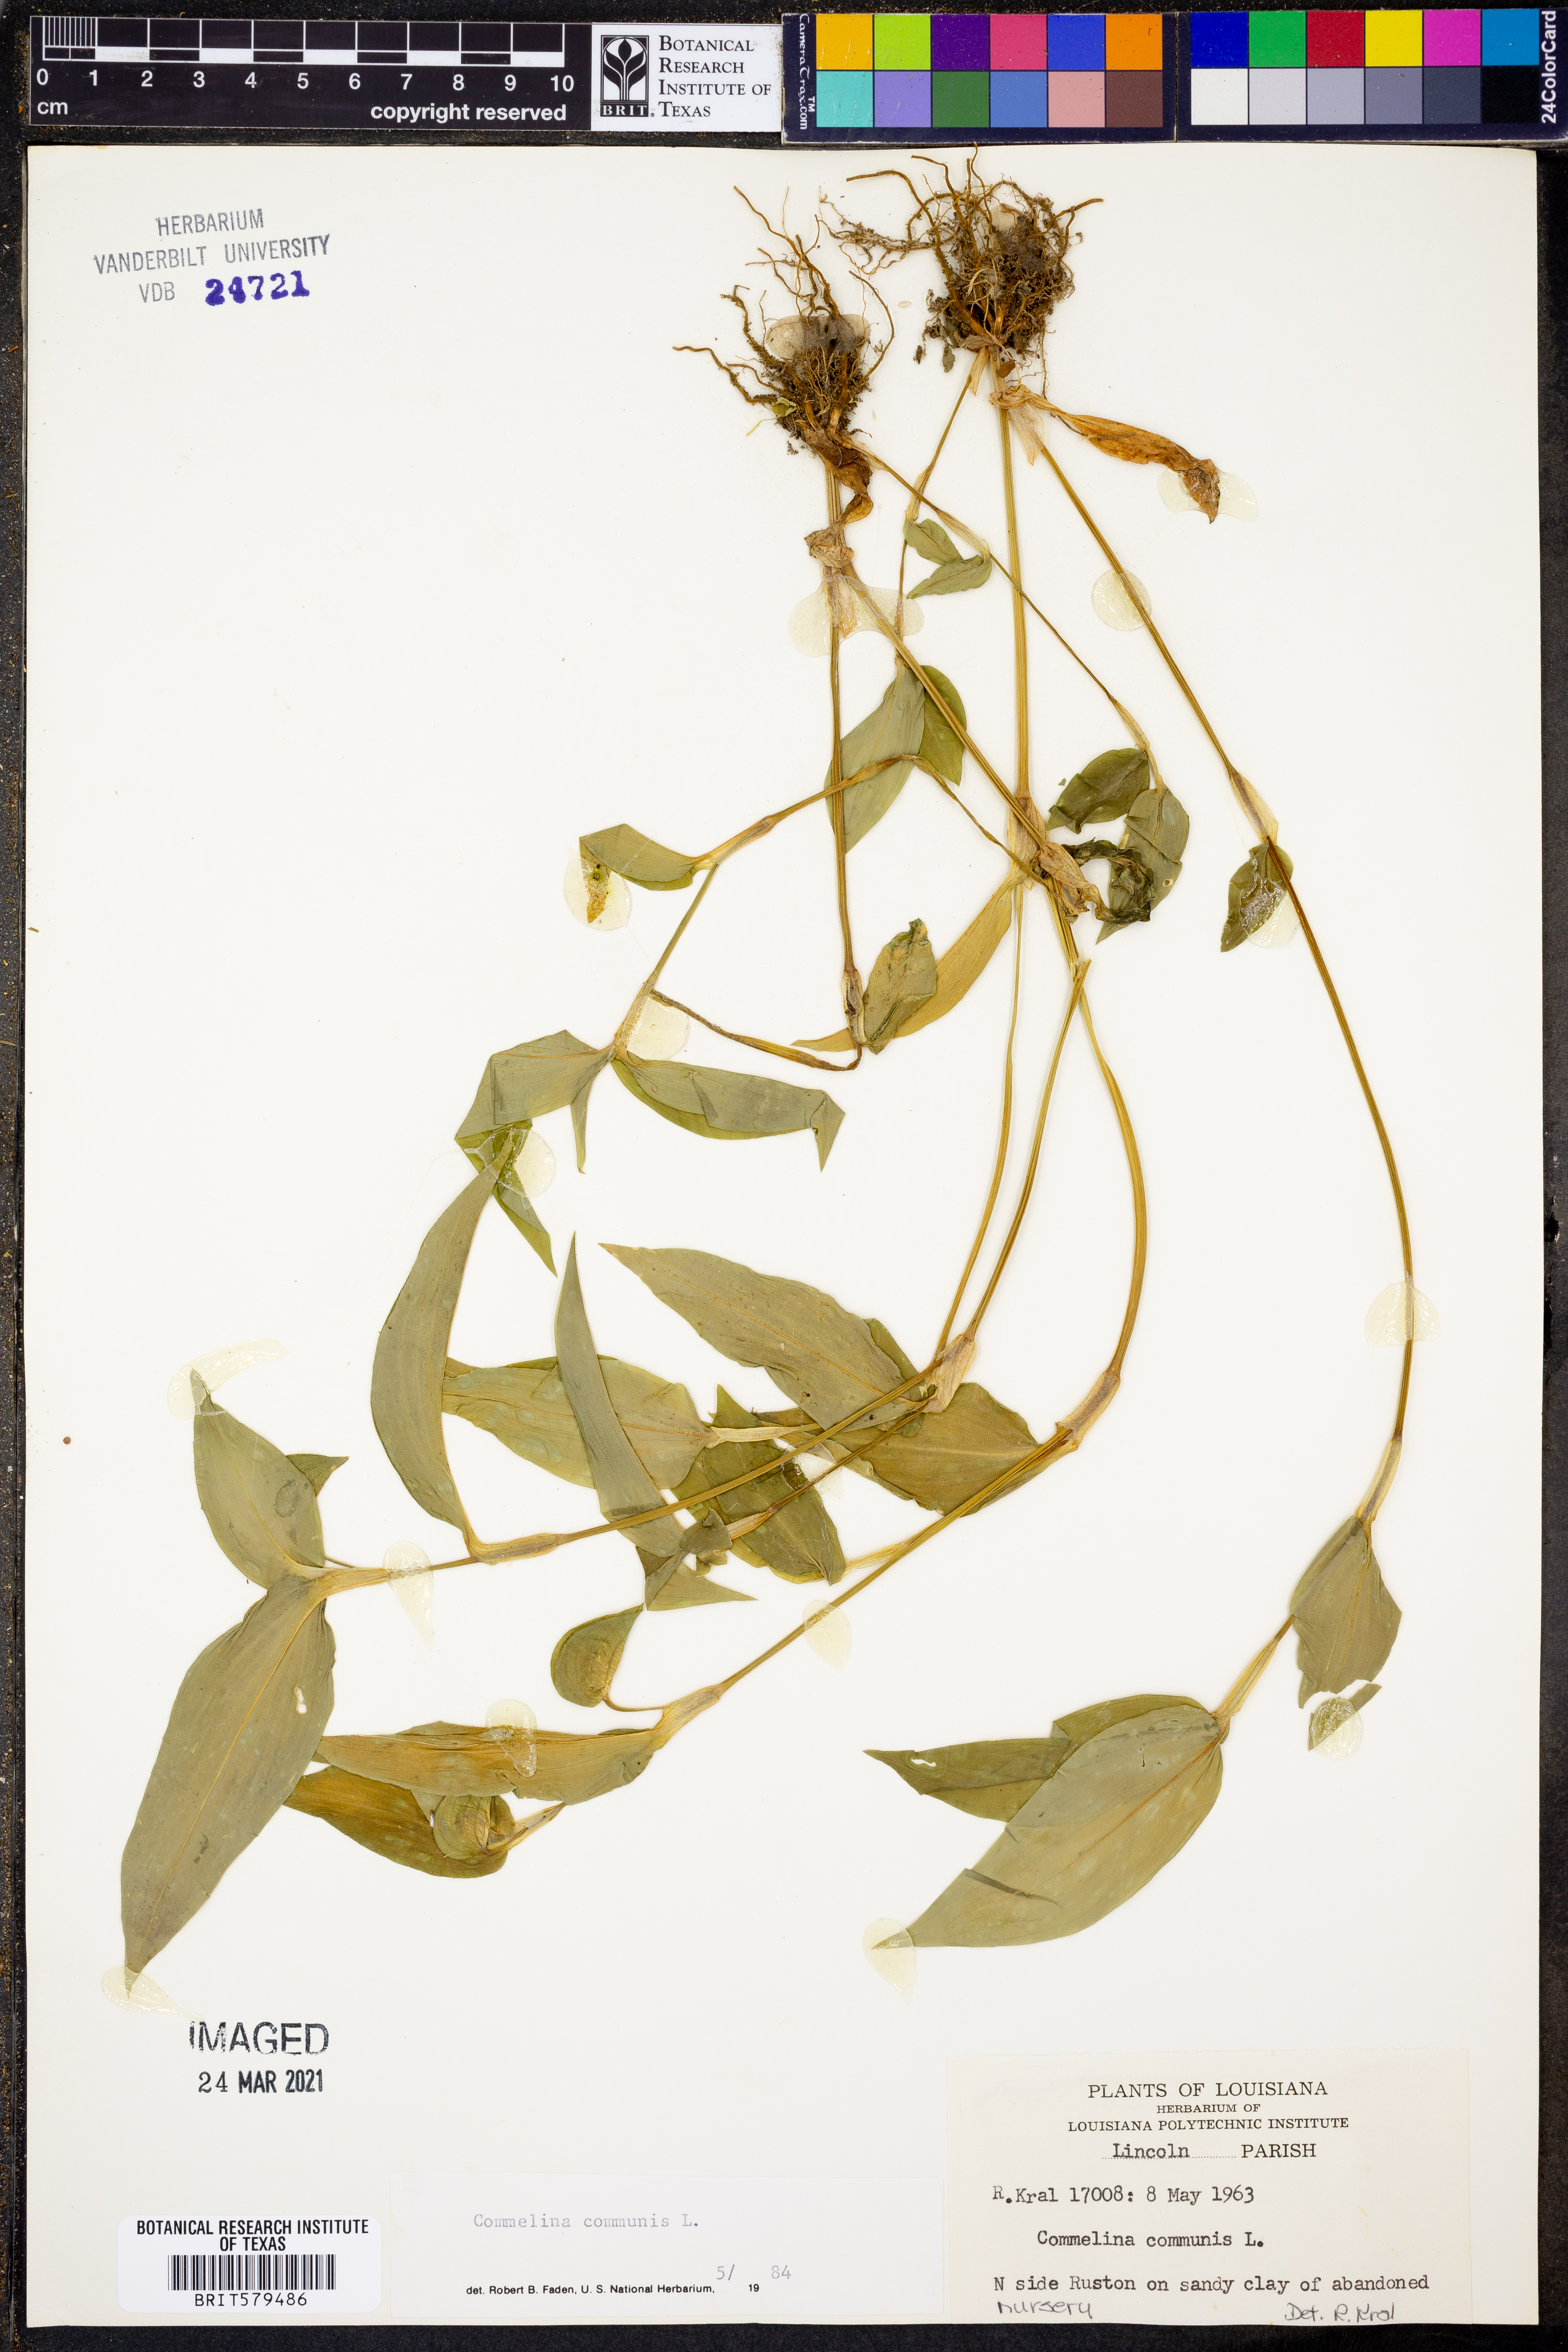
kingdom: Plantae
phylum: Tracheophyta
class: Liliopsida
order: Commelinales
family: Commelinaceae
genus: Commelina
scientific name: Commelina communis
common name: Asiatic dayflower
